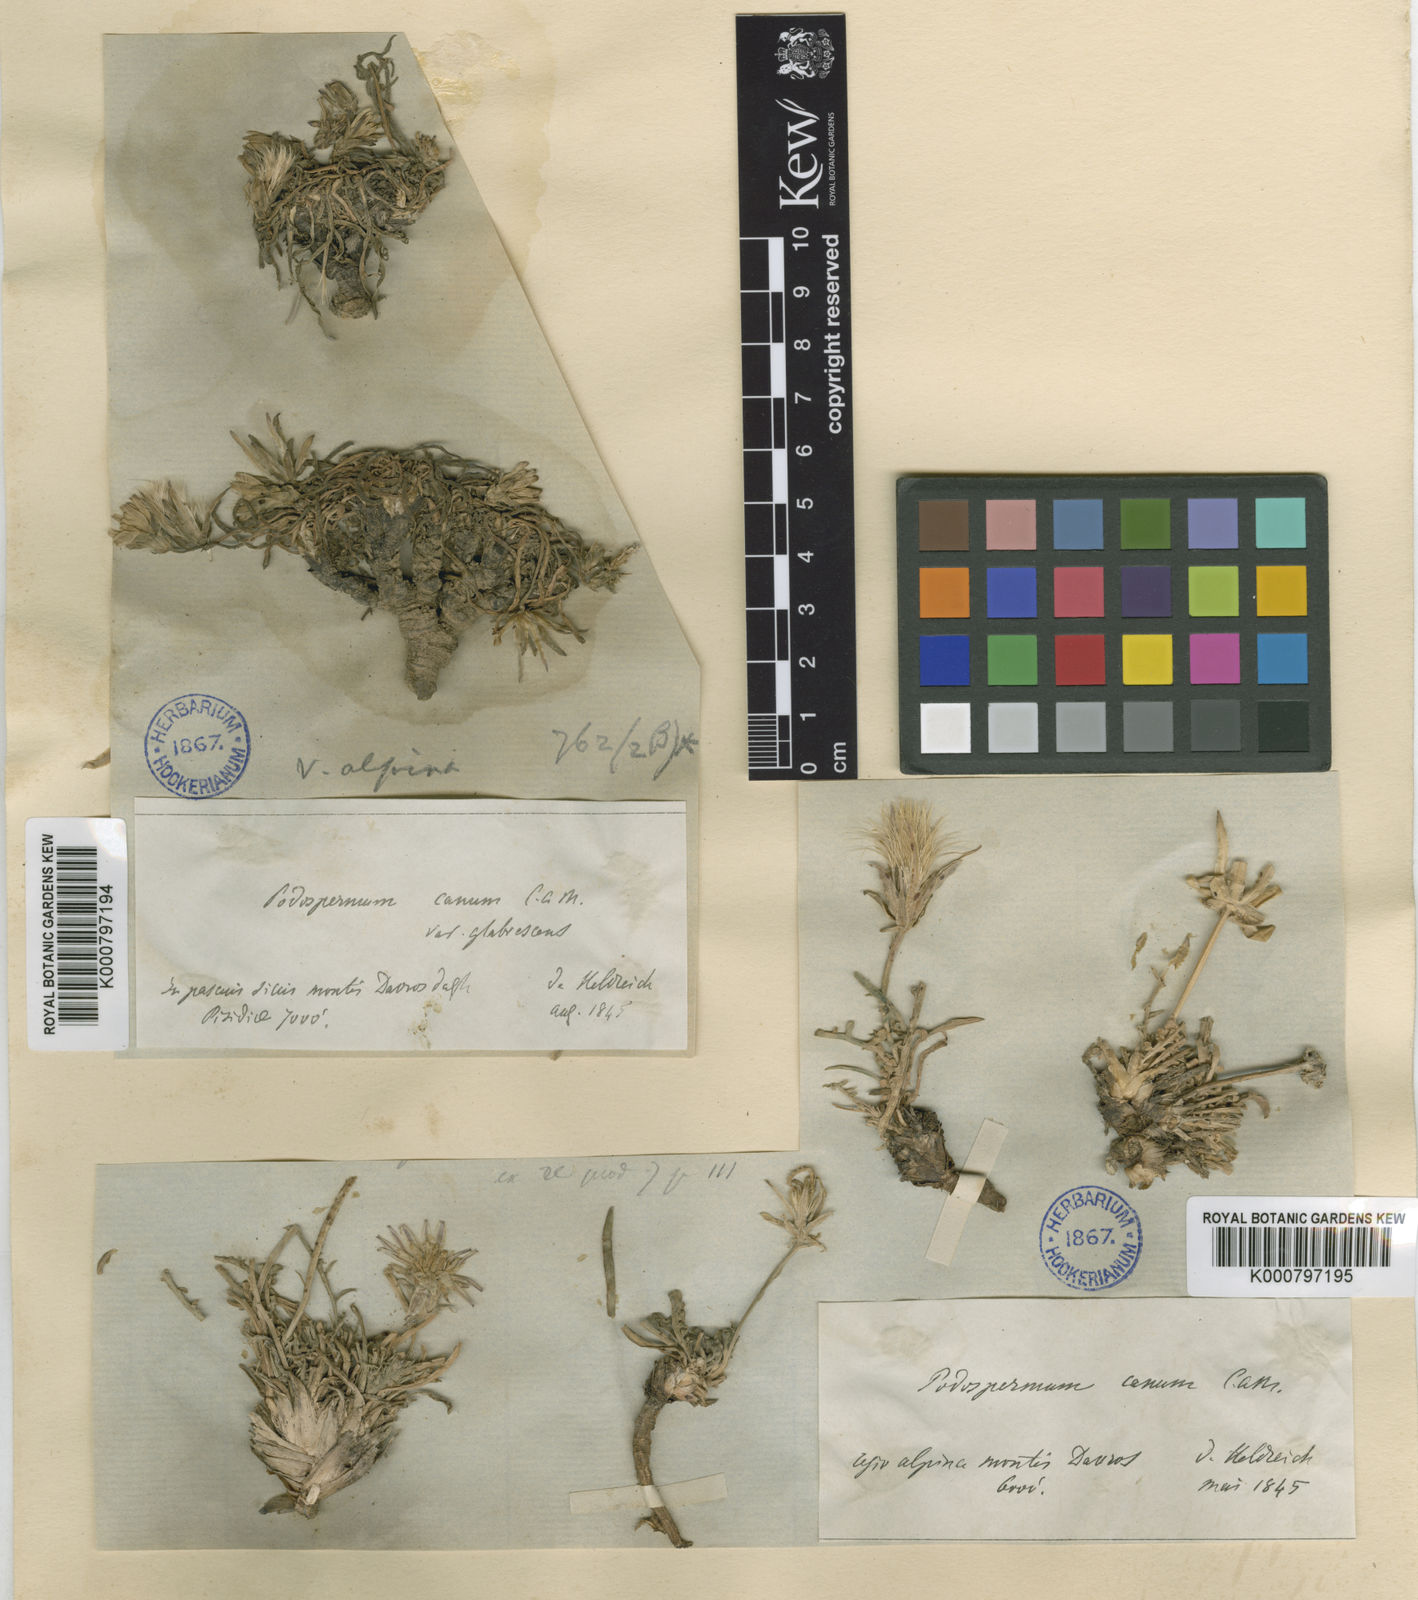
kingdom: Plantae
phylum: Tracheophyta
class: Magnoliopsida
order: Asterales
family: Asteraceae
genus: Scorzonera
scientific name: Scorzonera cana
